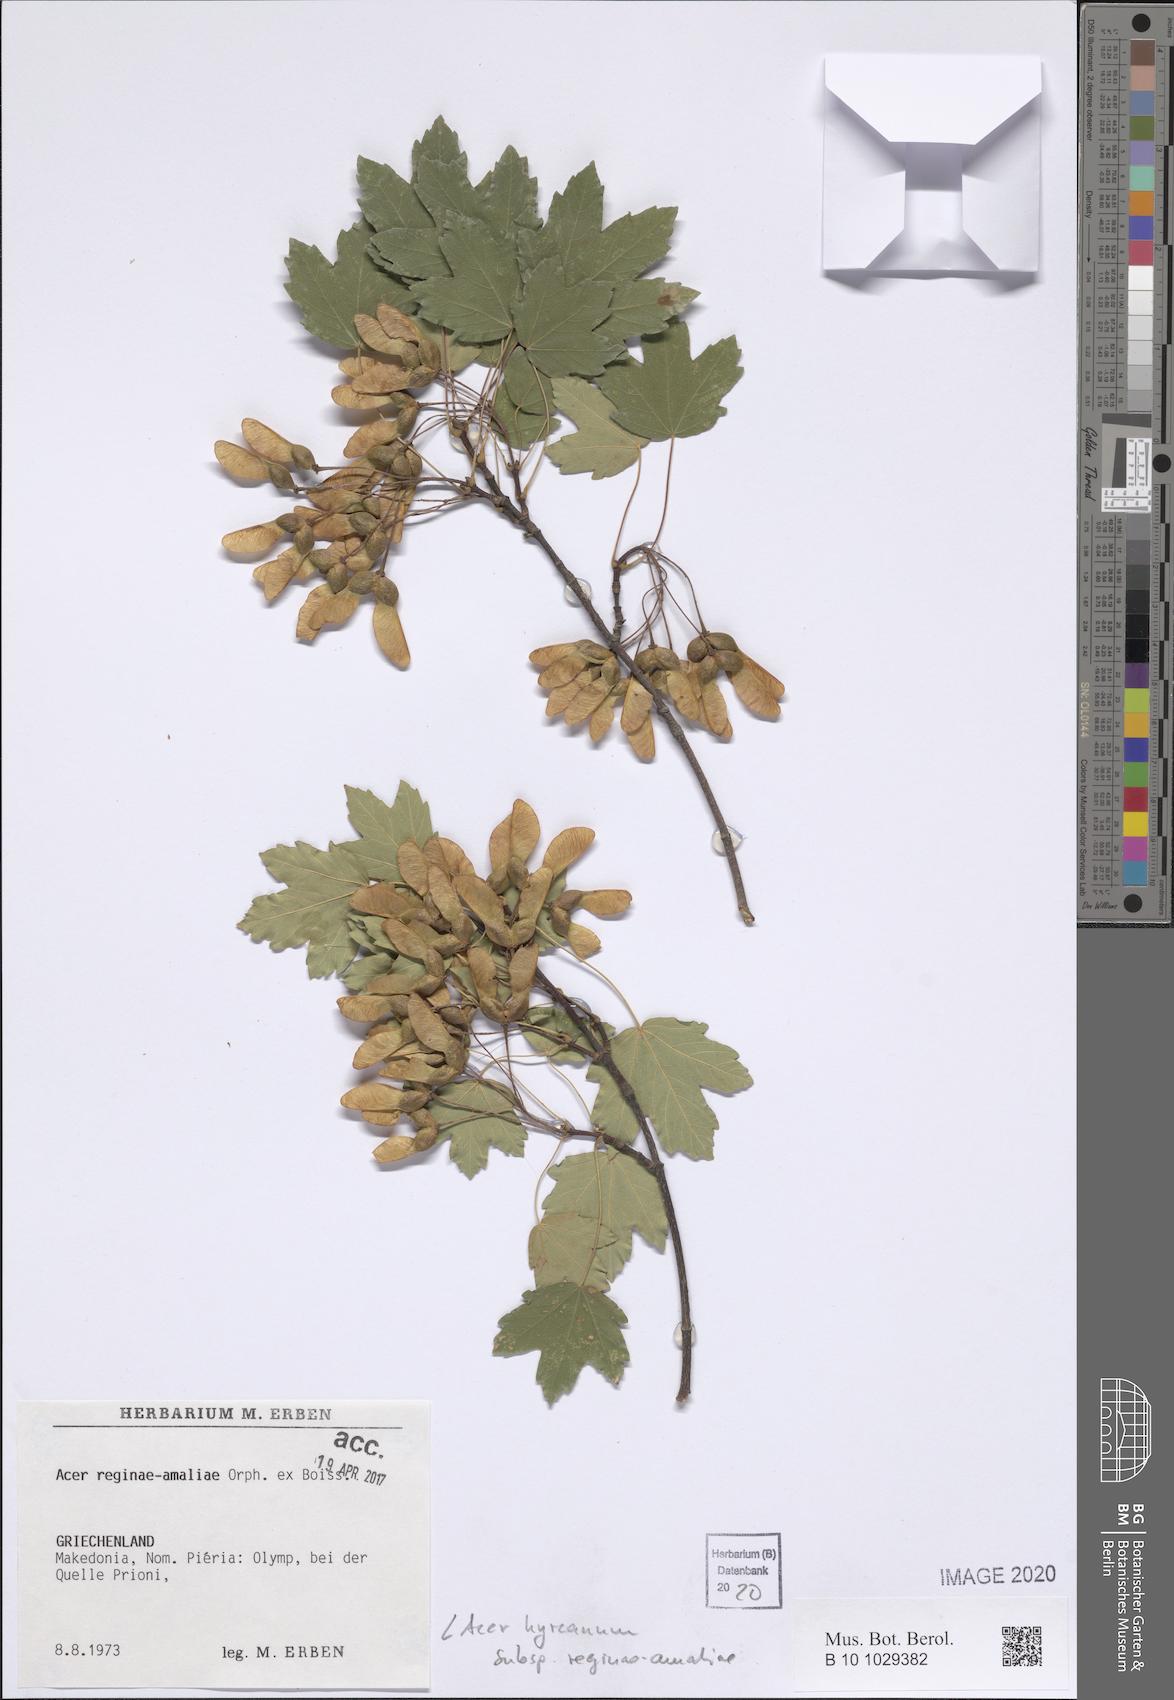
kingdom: Plantae
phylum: Tracheophyta
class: Magnoliopsida
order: Sapindales
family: Sapindaceae
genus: Acer
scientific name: Acer hyrcanum
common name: Balkan maple
